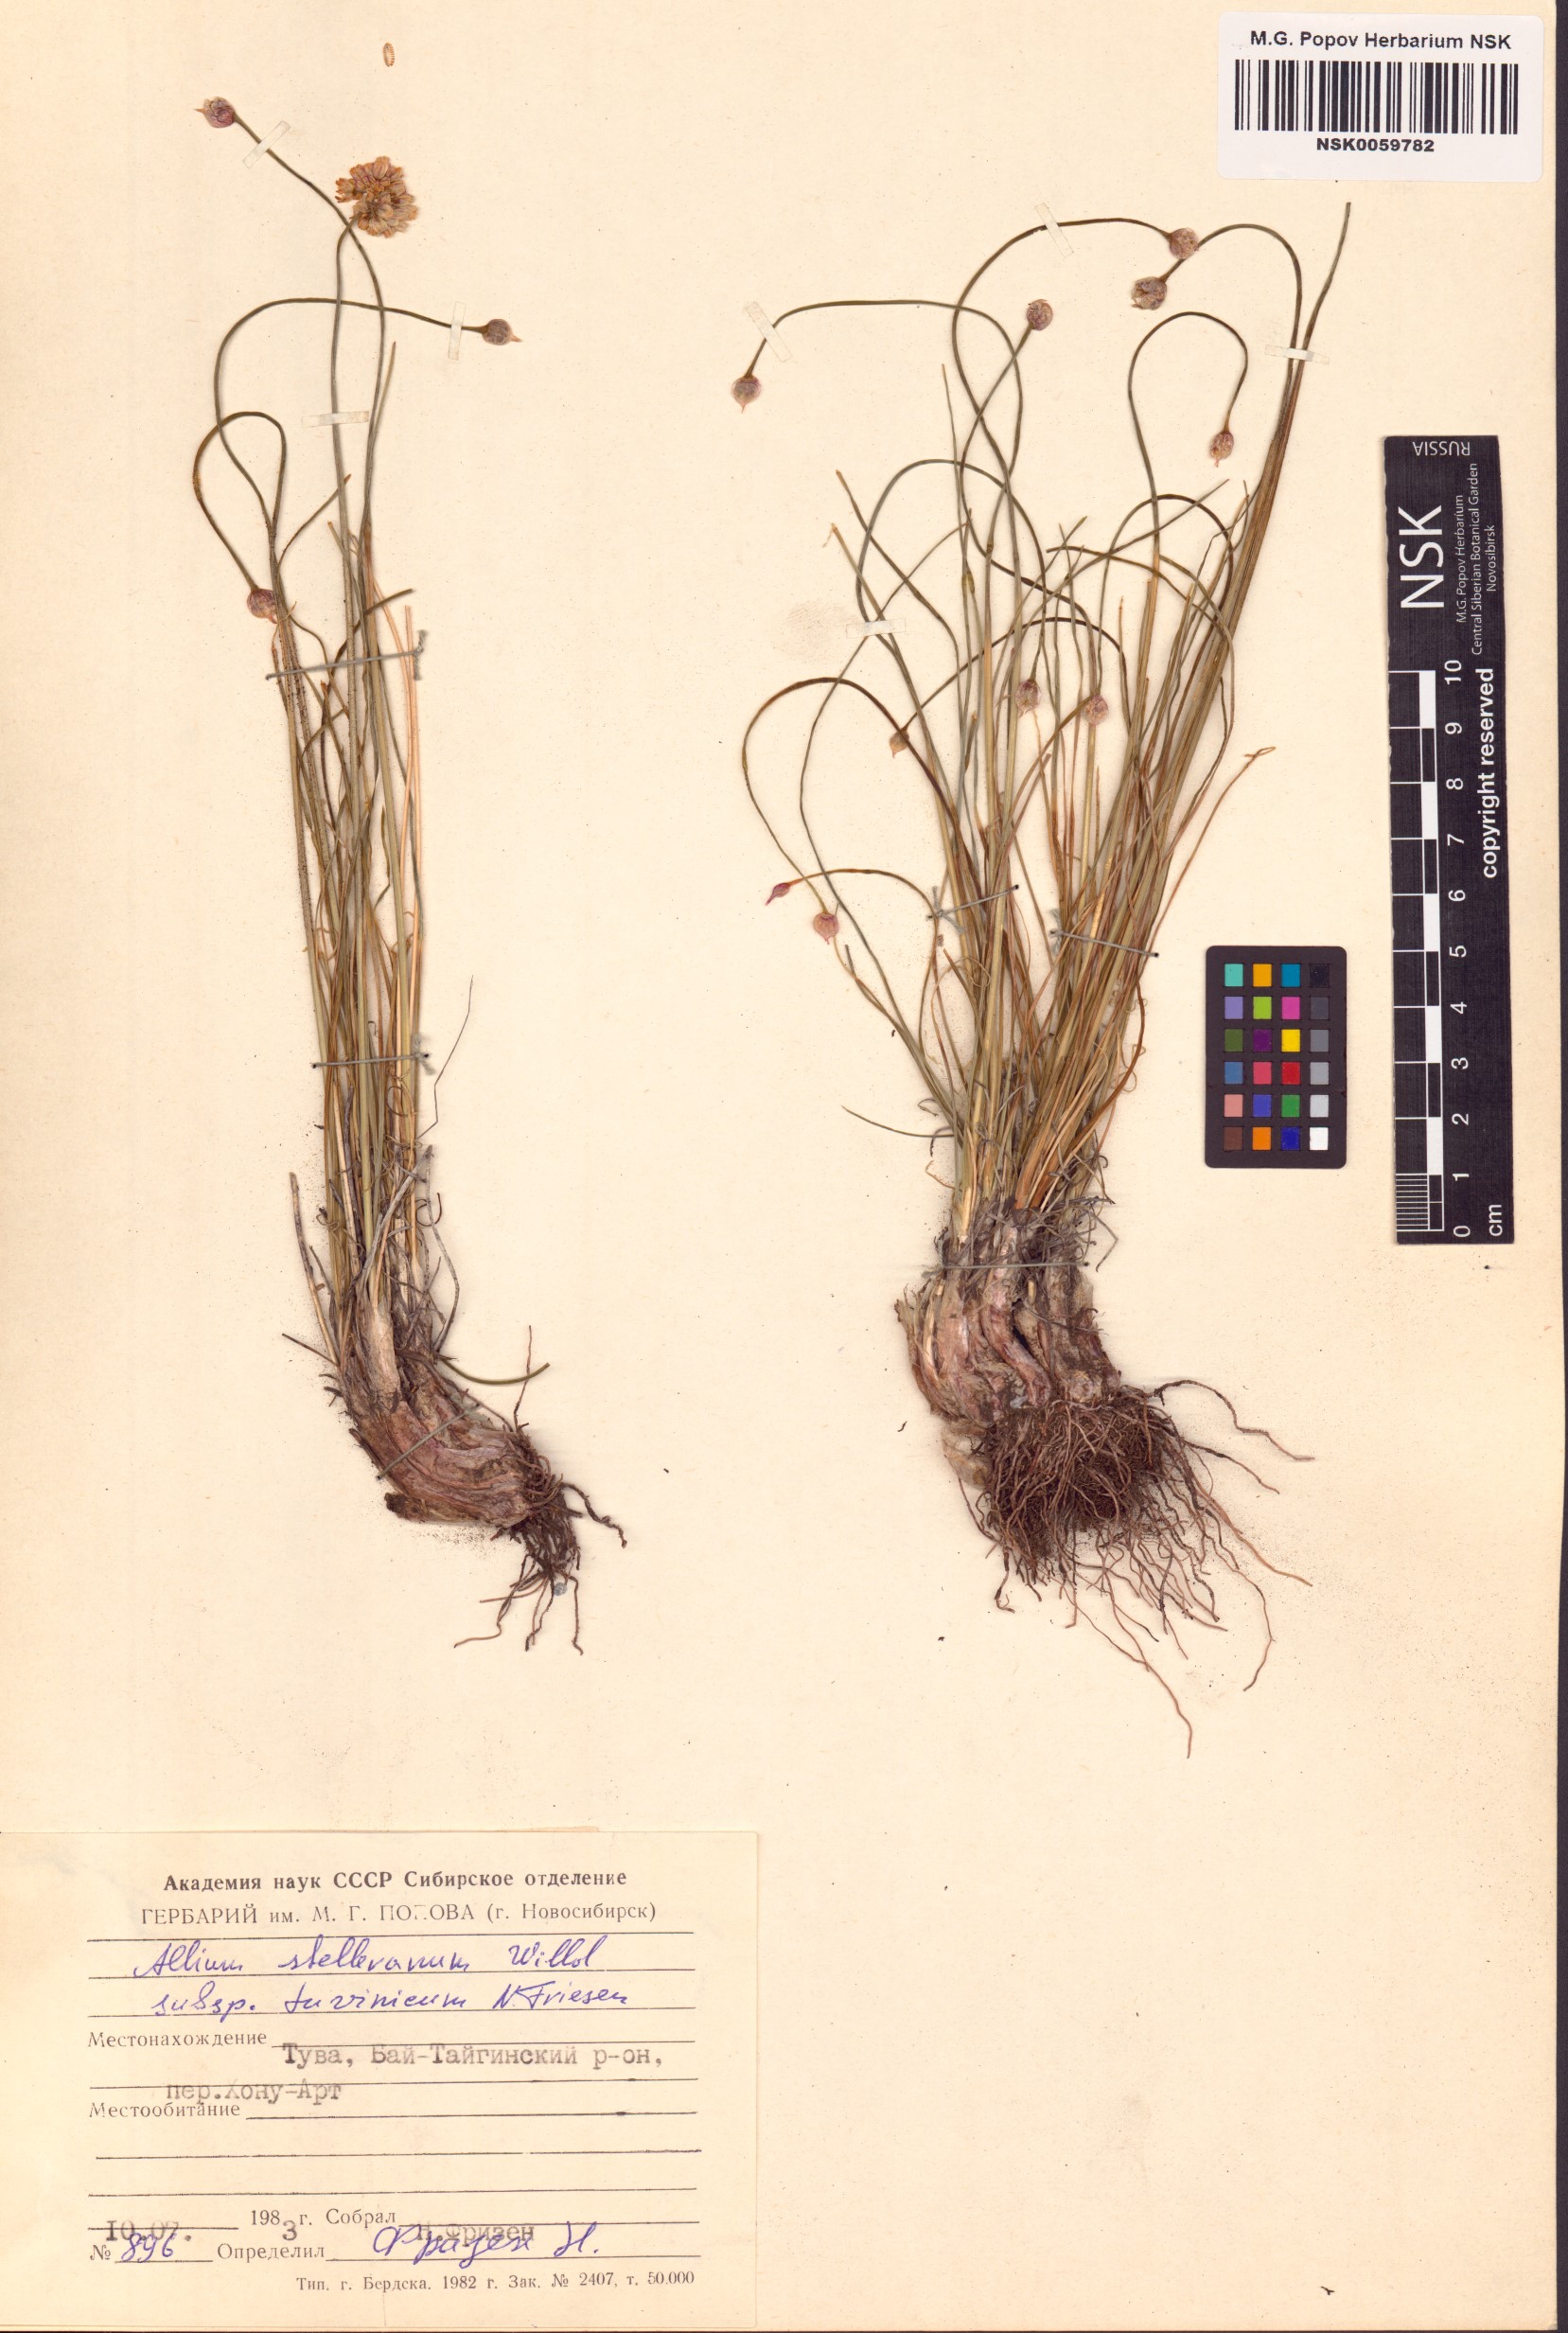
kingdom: Plantae
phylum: Tracheophyta
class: Liliopsida
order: Asparagales
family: Amaryllidaceae
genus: Allium
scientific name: Allium tuvinicum
